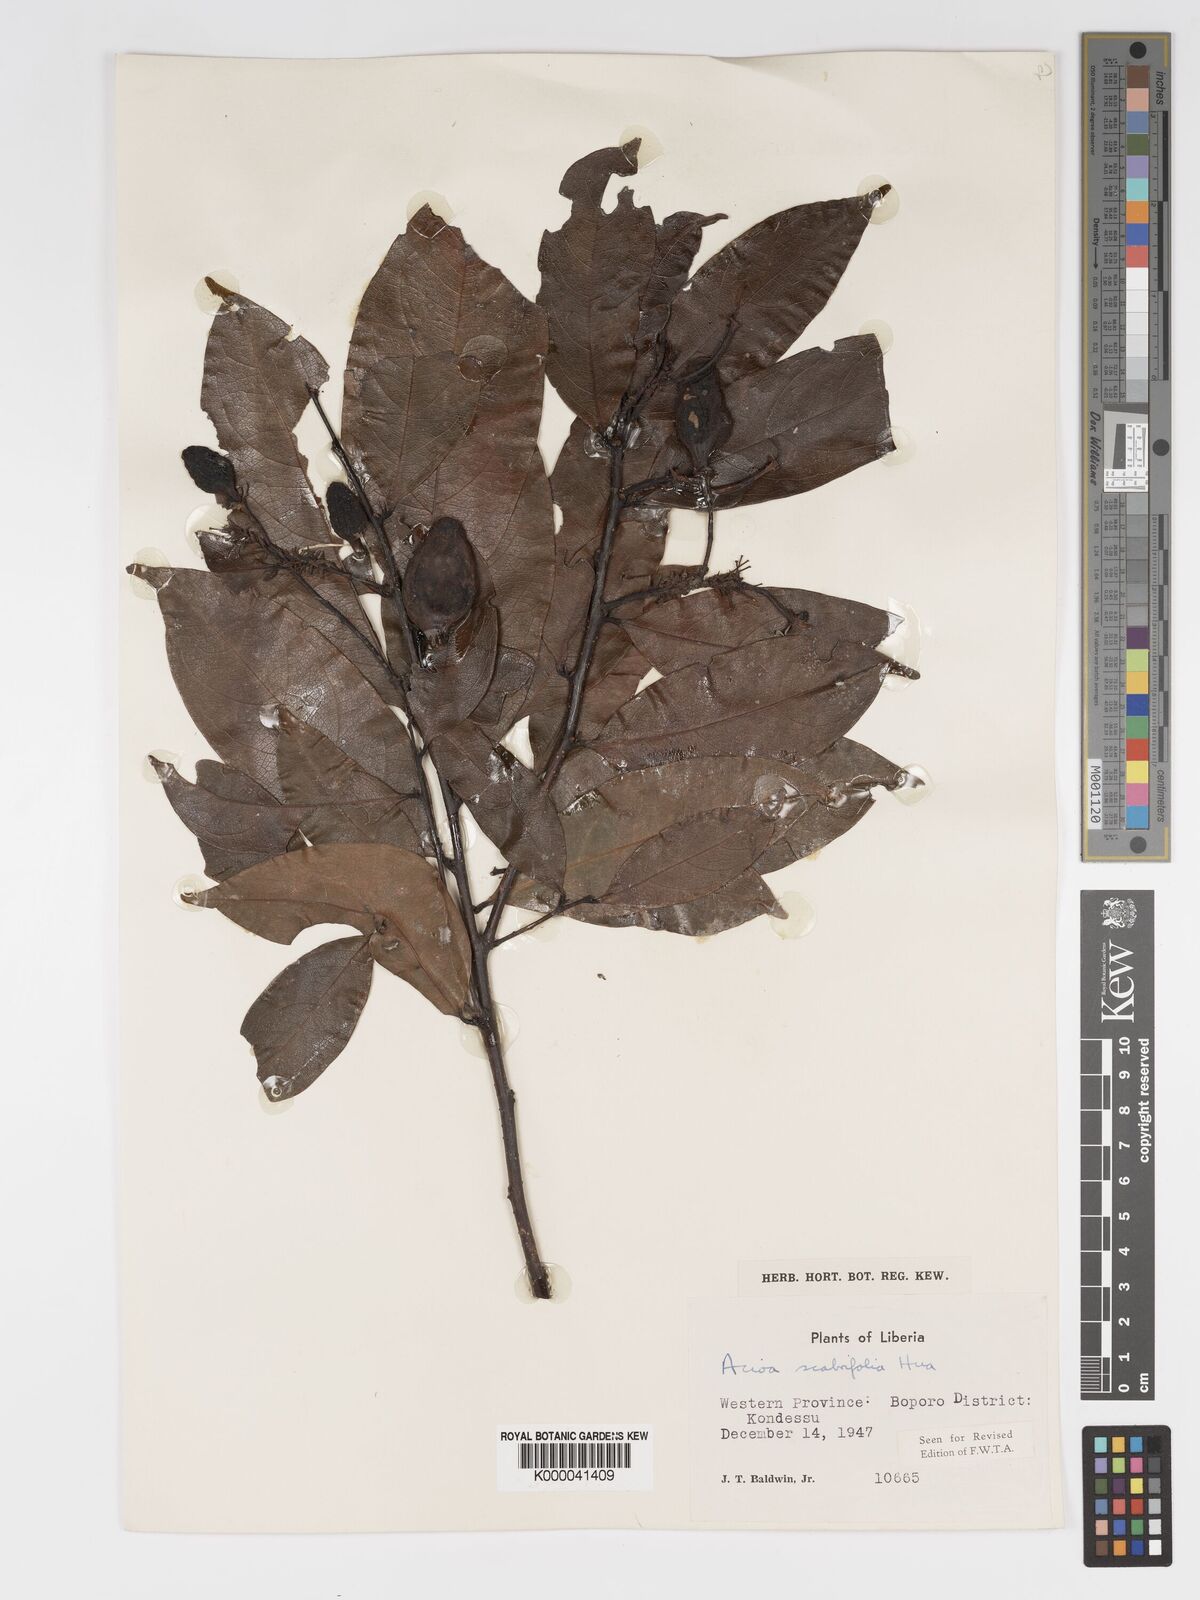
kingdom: Plantae
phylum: Tracheophyta
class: Magnoliopsida
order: Malpighiales
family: Chrysobalanaceae
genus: Dactyladenia
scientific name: Dactyladenia scabrifolia
